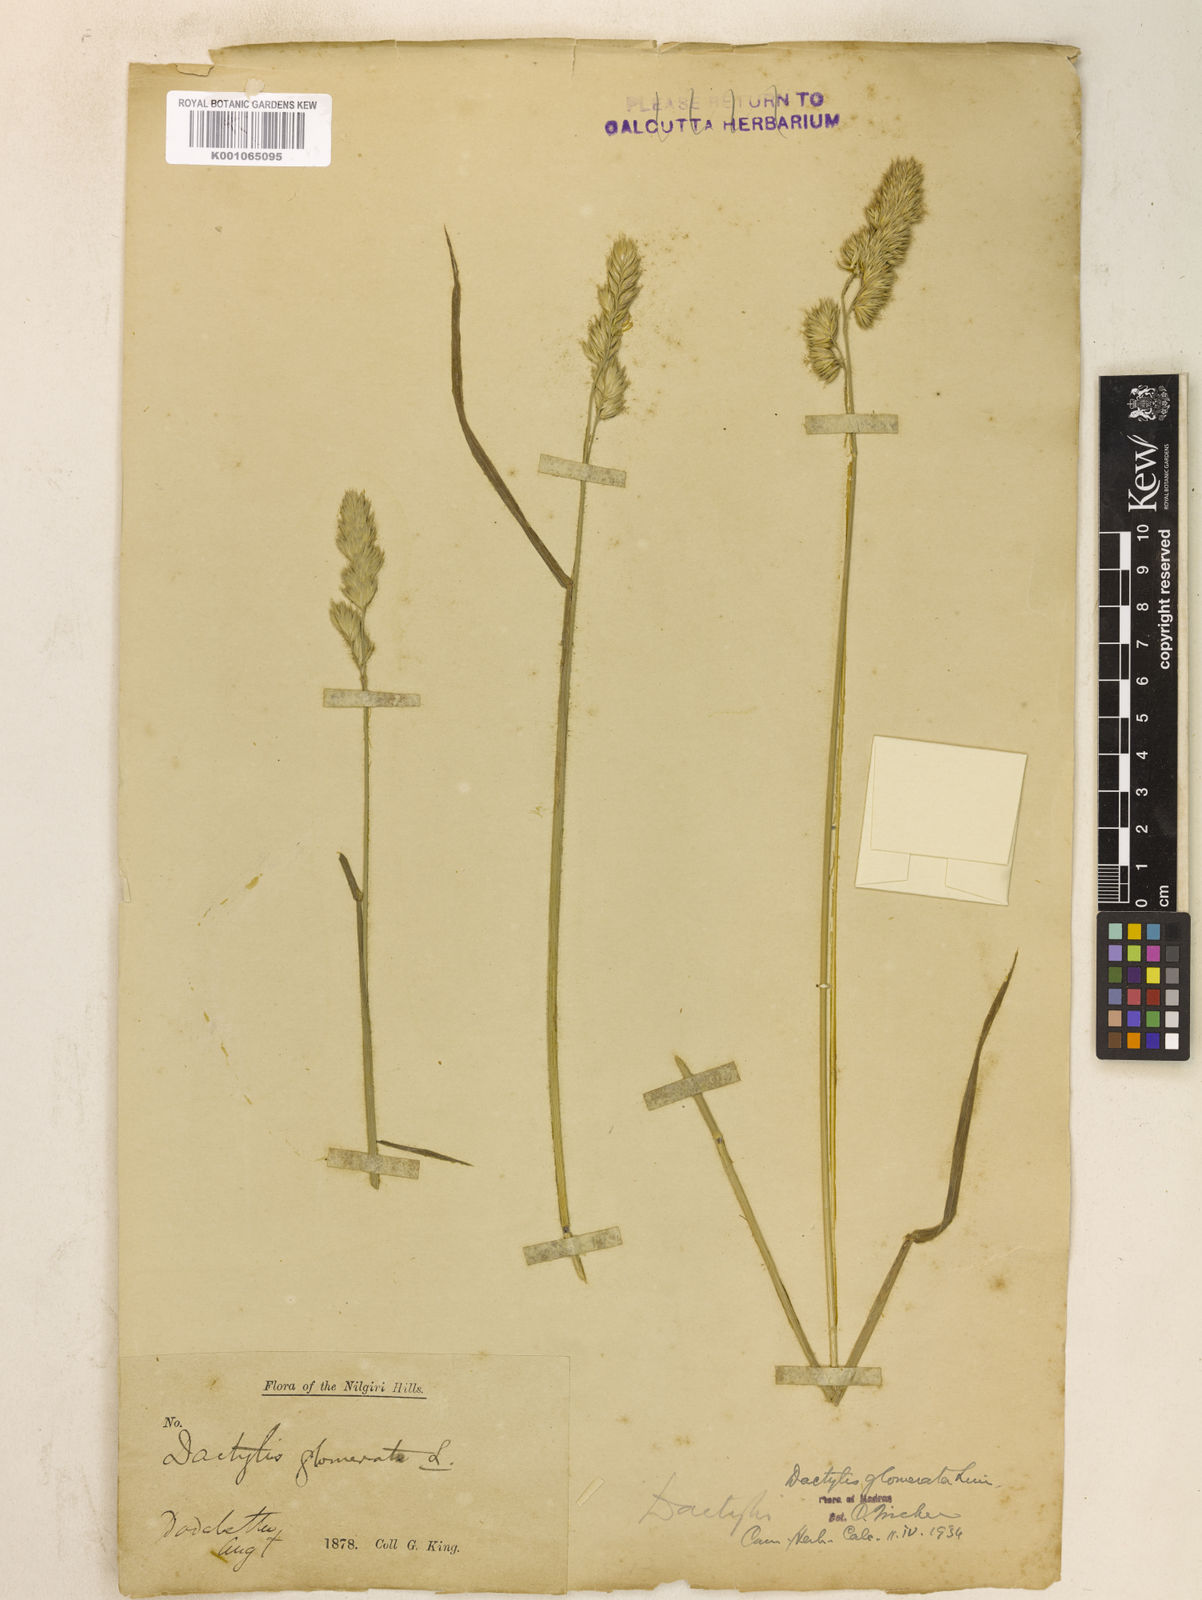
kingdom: Plantae
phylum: Tracheophyta
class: Liliopsida
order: Poales
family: Poaceae
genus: Dactylis
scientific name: Dactylis glomerata
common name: Orchardgrass
